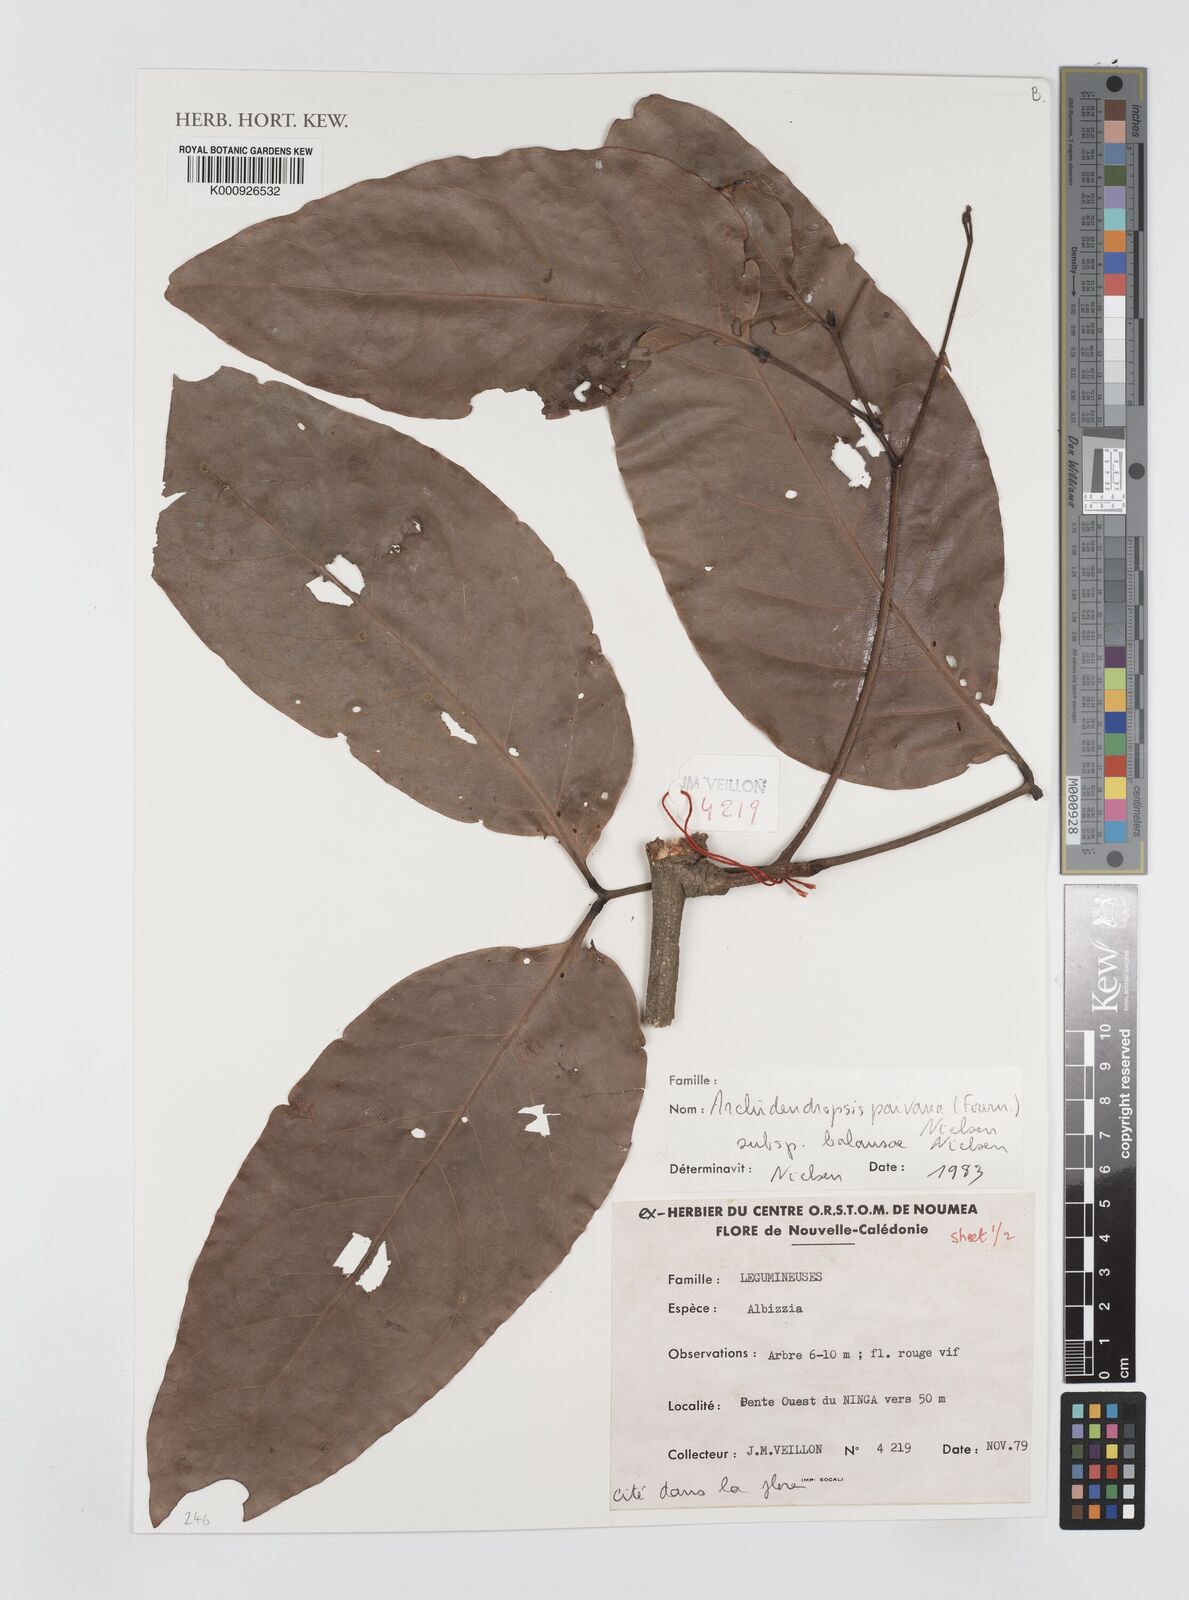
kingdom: Plantae
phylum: Tracheophyta
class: Magnoliopsida
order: Fabales
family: Fabaceae
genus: Archidendropsis
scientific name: Archidendropsis paivana
